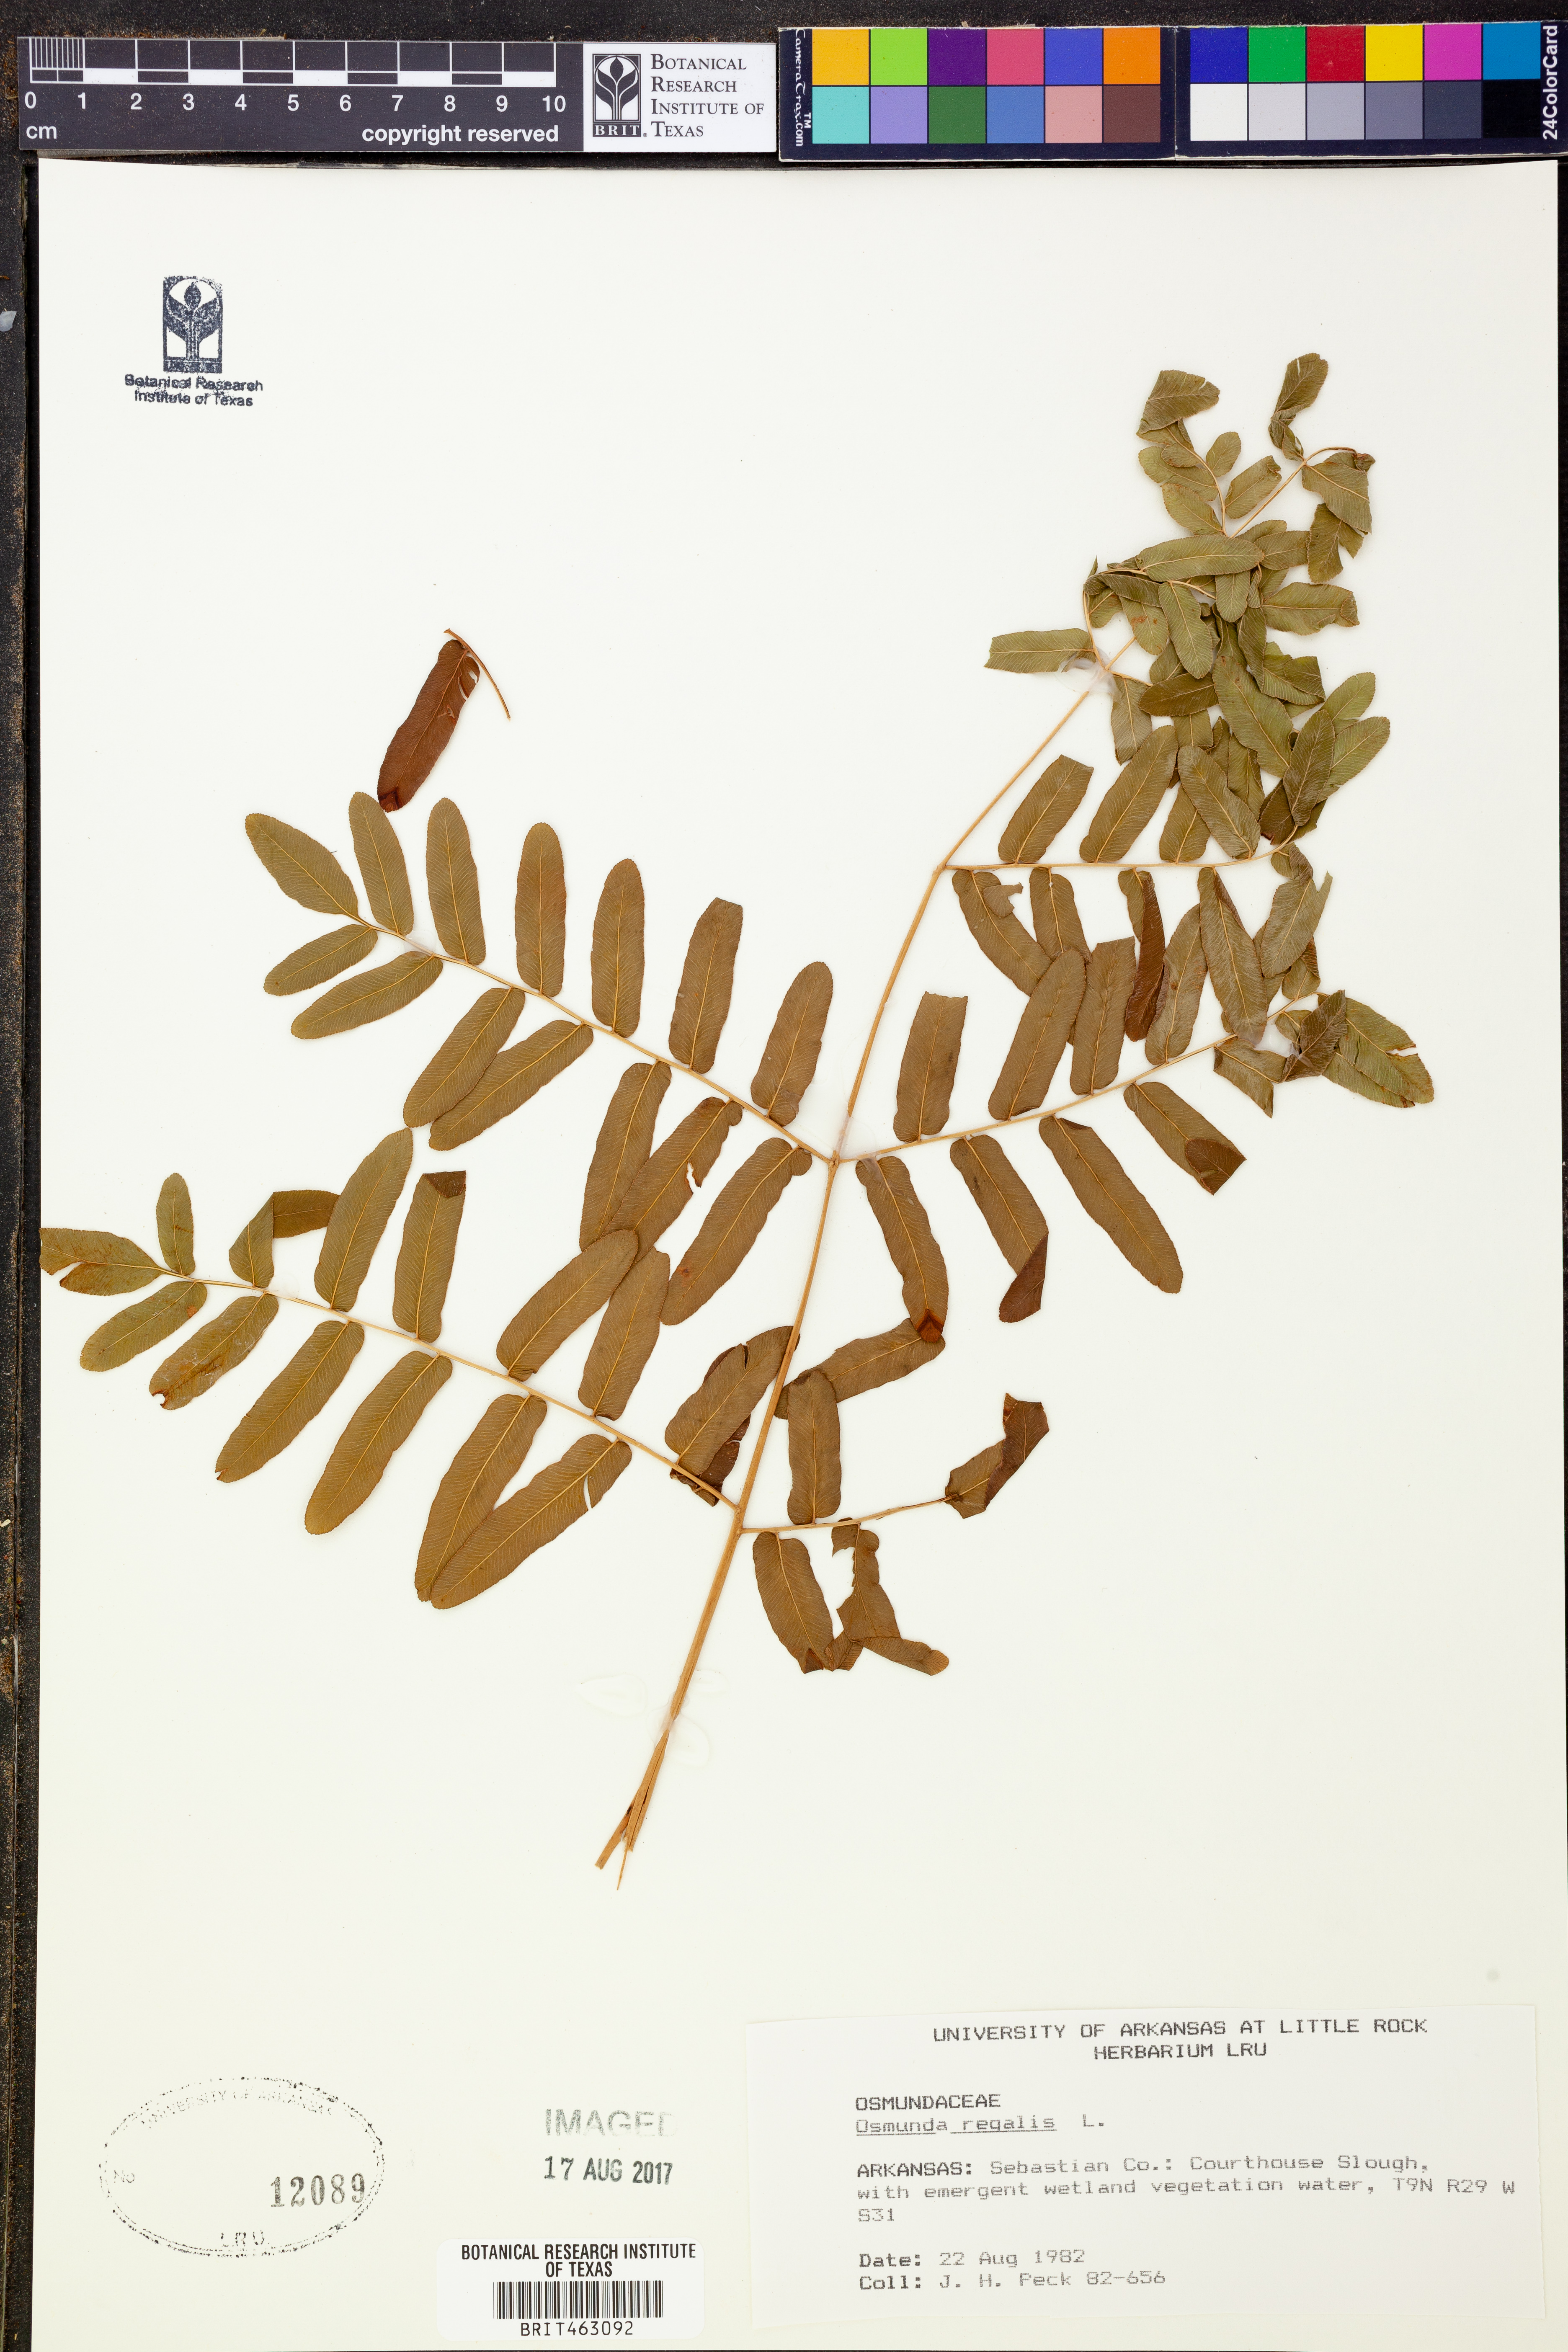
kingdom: Plantae
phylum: Tracheophyta
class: Polypodiopsida
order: Osmundales
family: Osmundaceae
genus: Osmunda
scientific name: Osmunda regalis
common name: Royal fern
